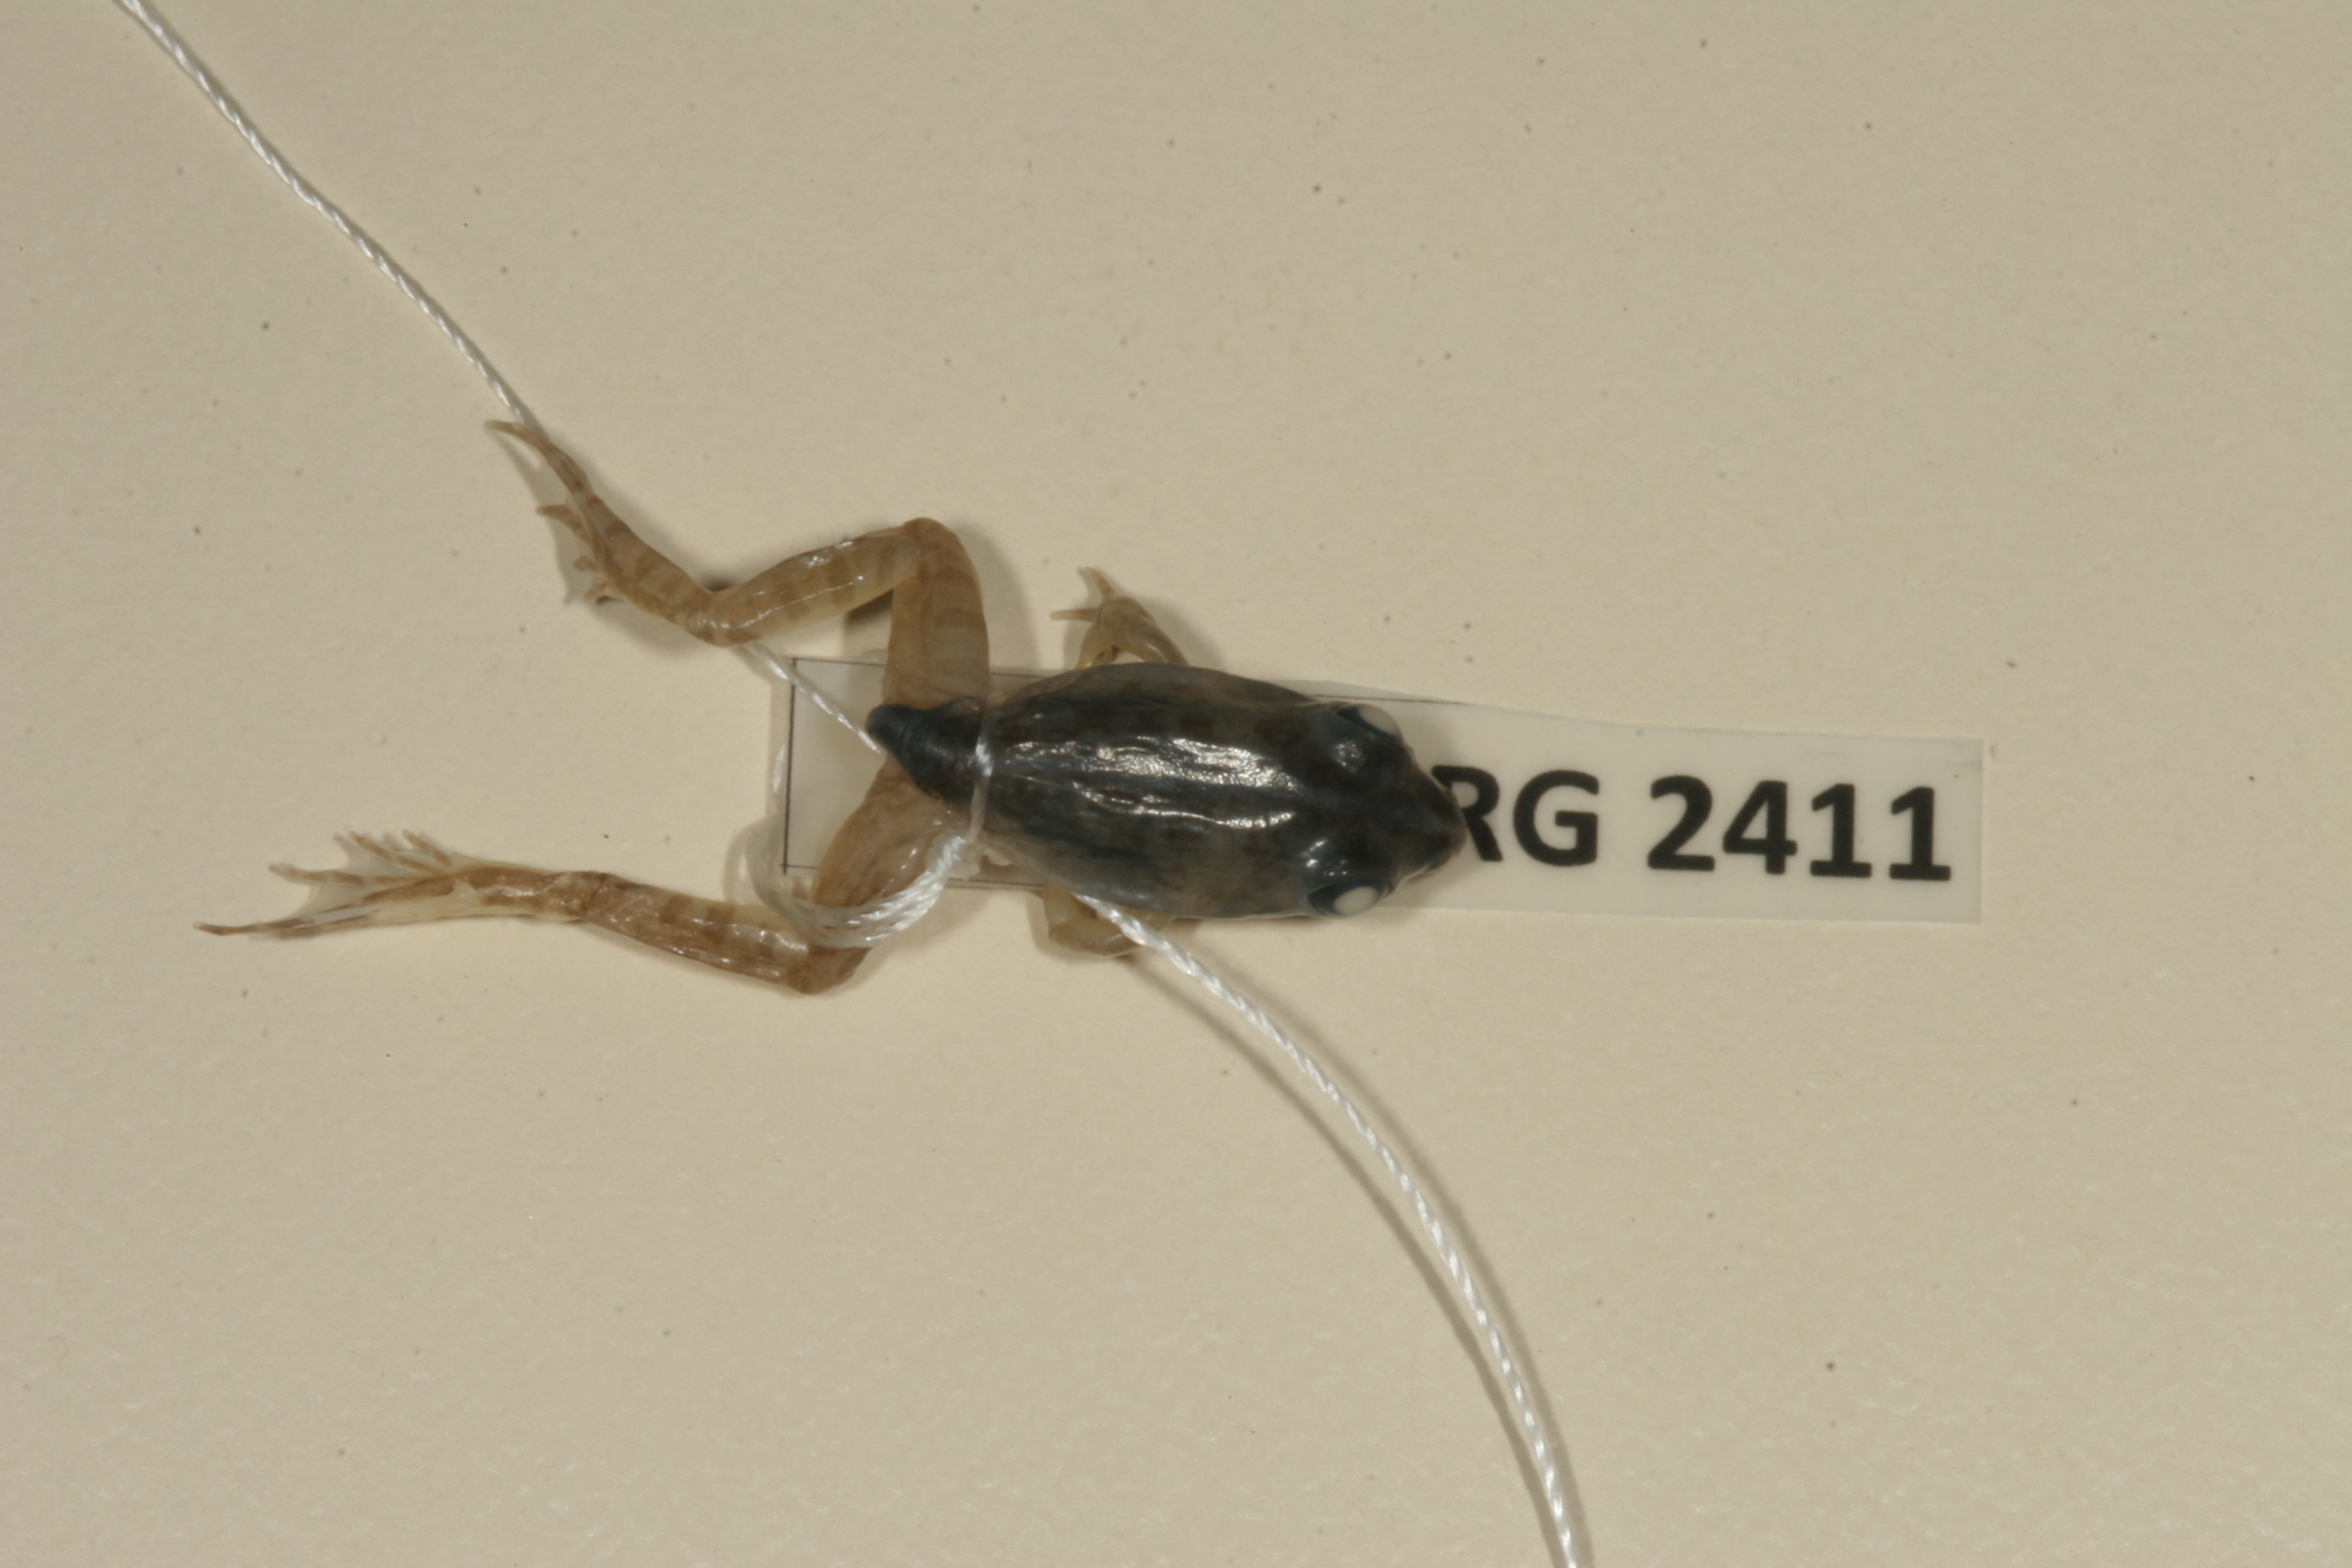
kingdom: Animalia
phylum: Chordata
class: Amphibia
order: Anura
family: Pyxicephalidae
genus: Amietia
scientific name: Amietia delalandii
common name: Delalande's river frog
